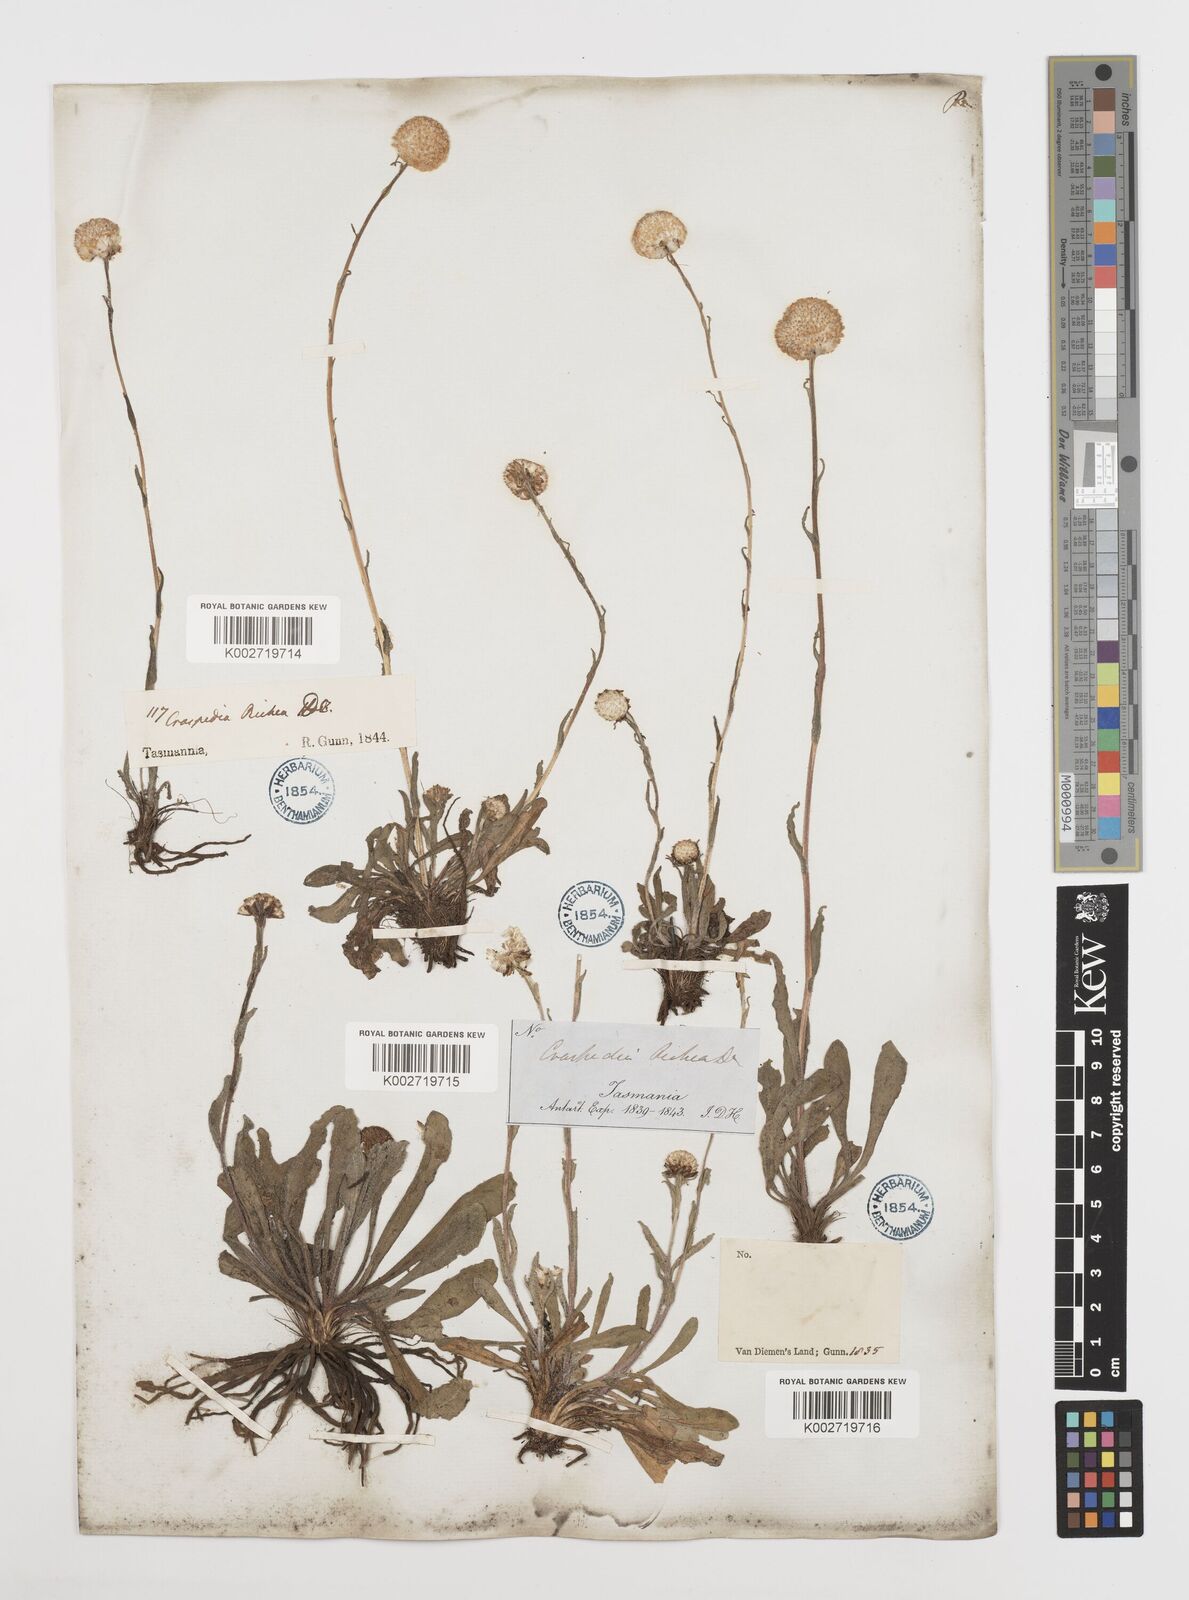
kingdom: Plantae
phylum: Tracheophyta
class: Magnoliopsida
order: Asterales
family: Asteraceae
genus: Craspedia
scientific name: Craspedia glauca
